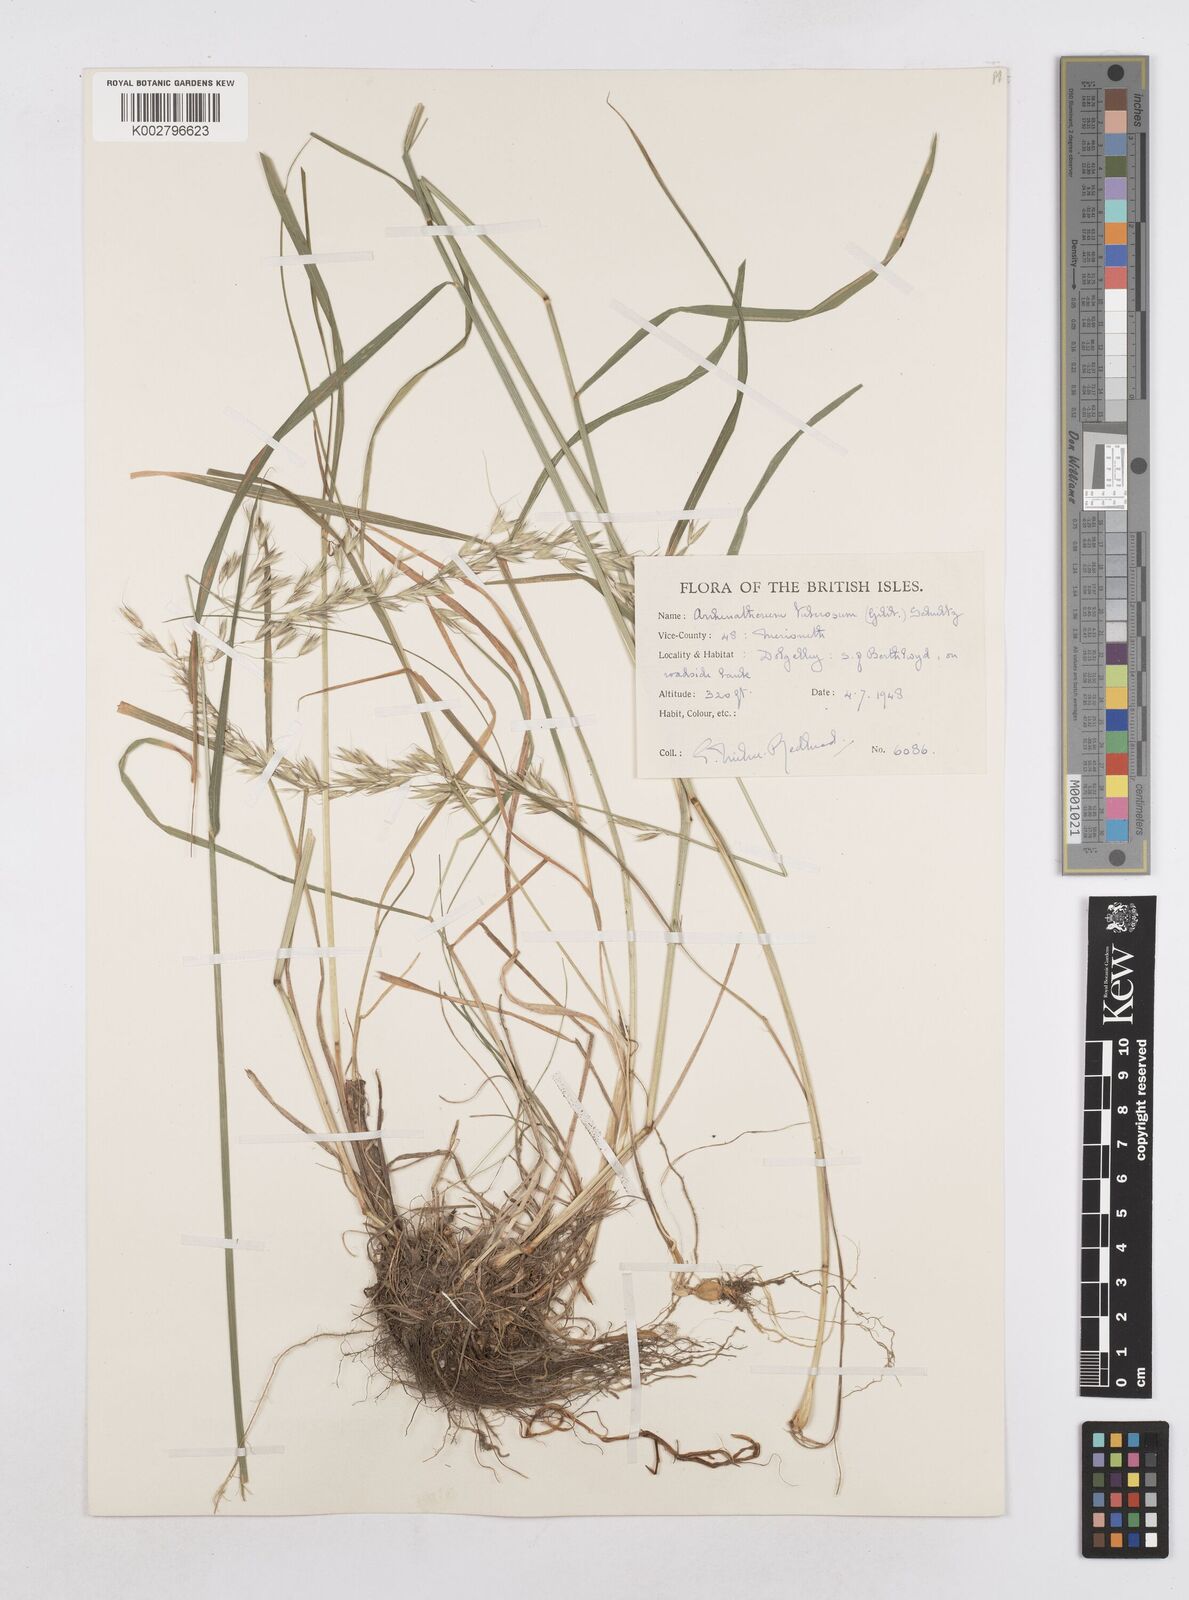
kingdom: Plantae
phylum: Tracheophyta
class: Liliopsida
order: Poales
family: Poaceae
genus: Arrhenatherum
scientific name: Arrhenatherum elatius
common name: Tall oatgrass
